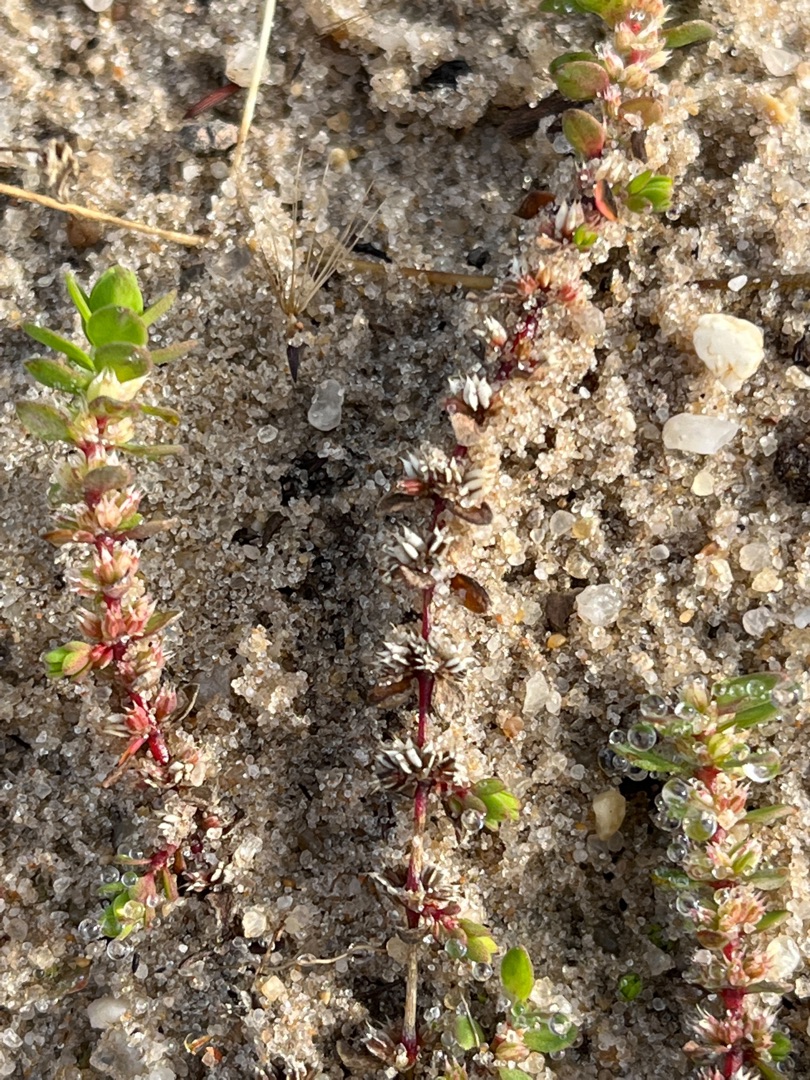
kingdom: Plantae
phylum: Tracheophyta
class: Magnoliopsida
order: Caryophyllales
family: Caryophyllaceae
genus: Illecebrum
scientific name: Illecebrum verticillatum
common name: Bruskbæger
